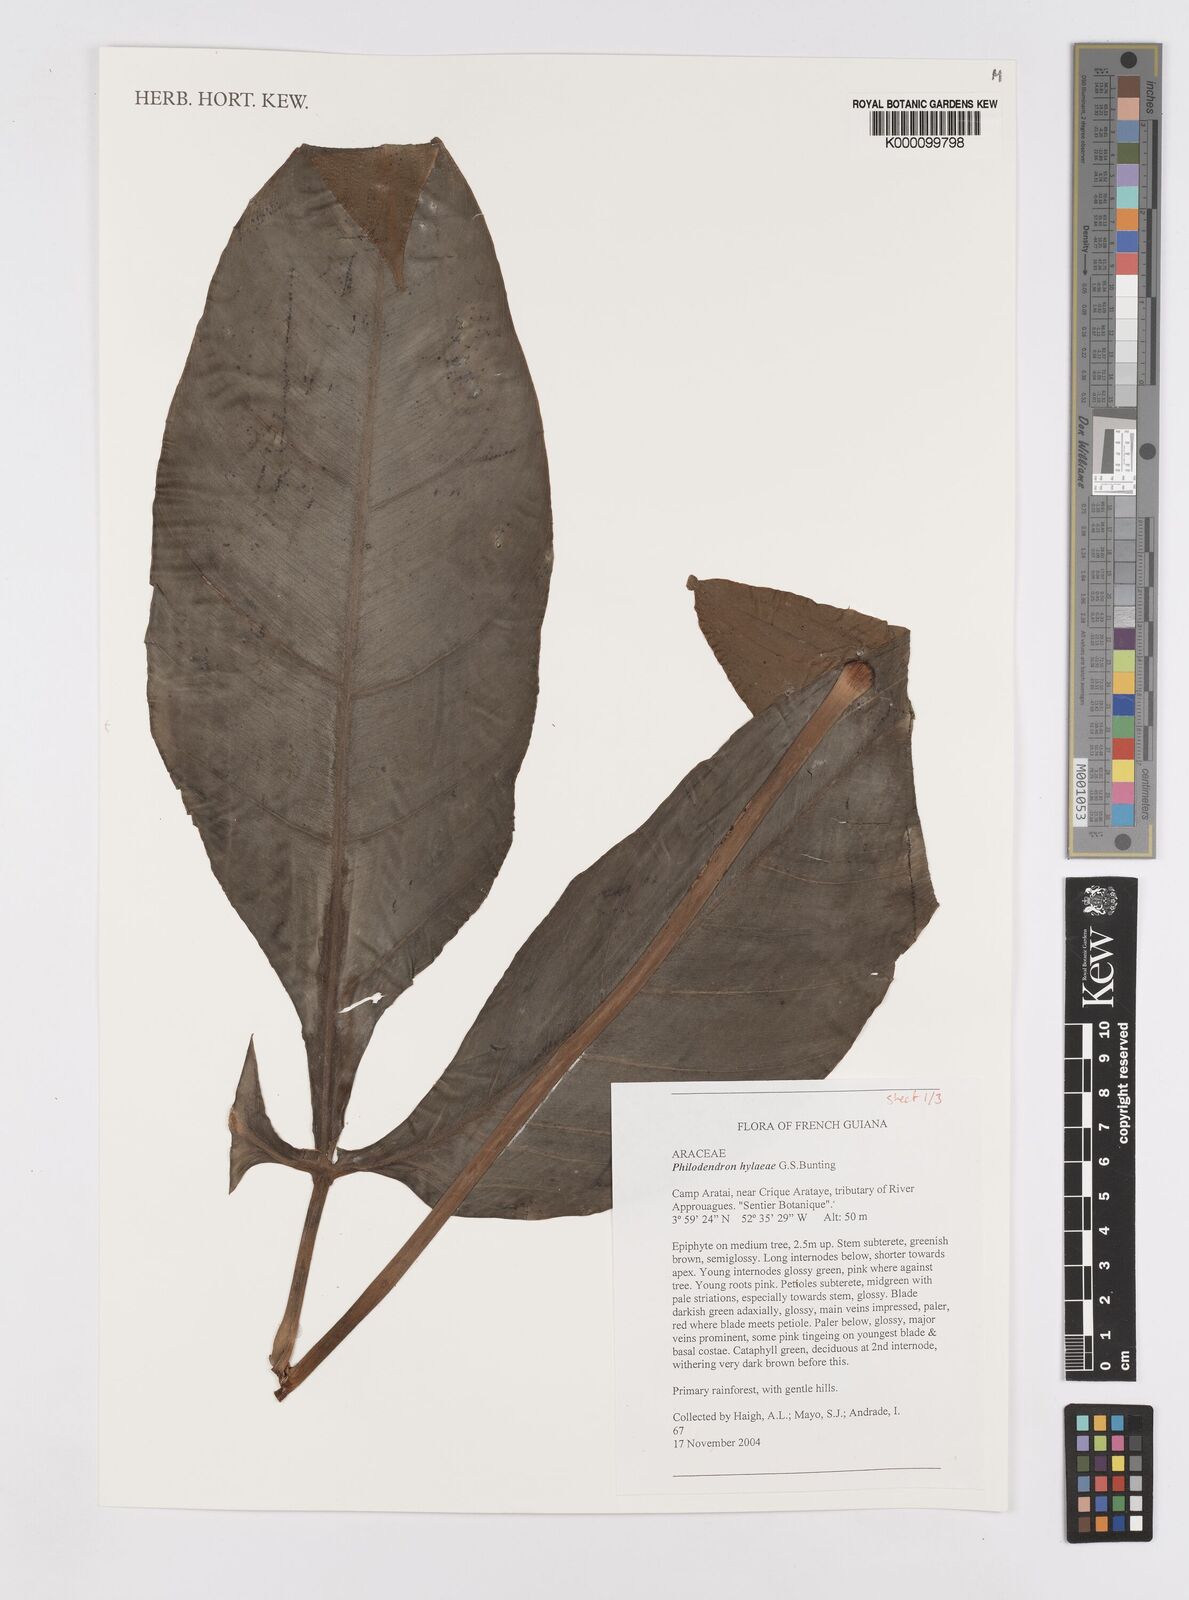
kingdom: Plantae
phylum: Tracheophyta
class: Liliopsida
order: Alismatales
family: Araceae
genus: Philodendron
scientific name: Philodendron hylaeae
